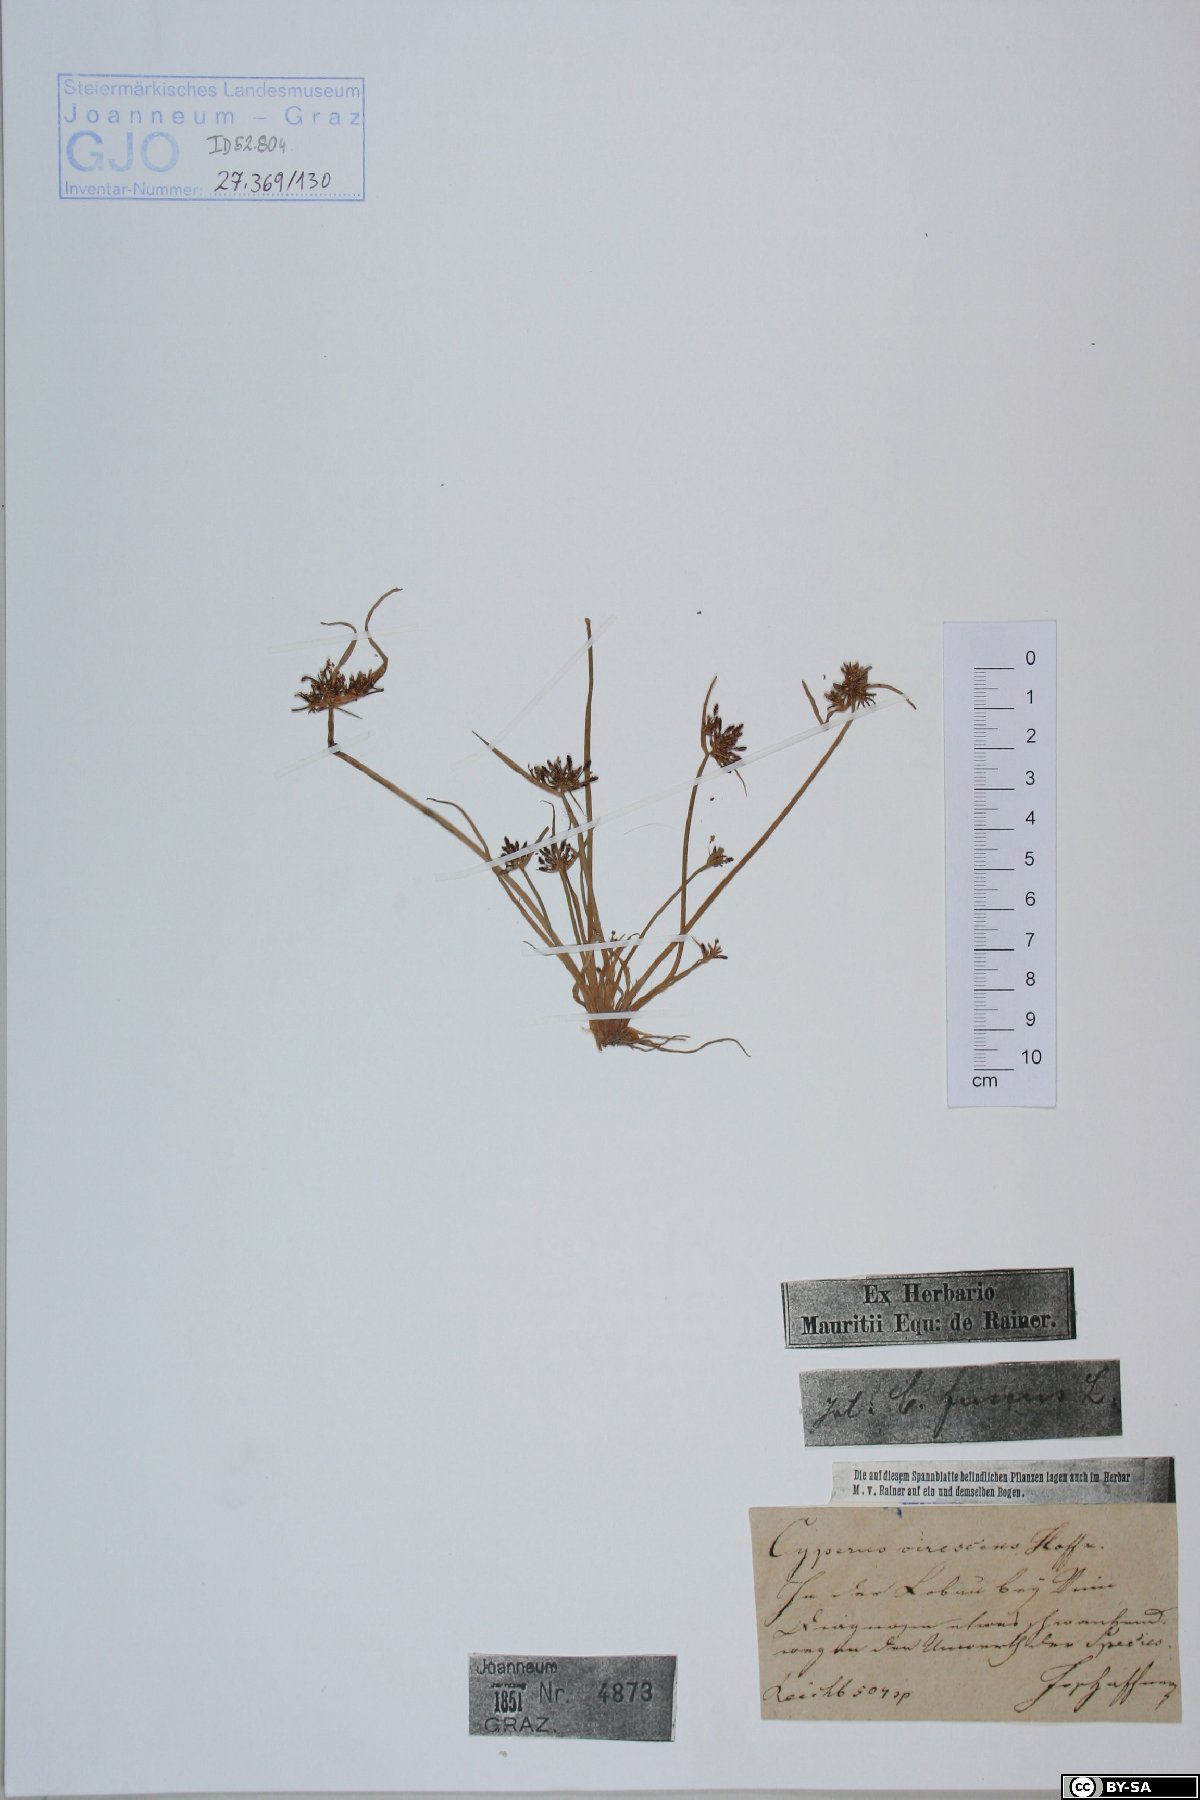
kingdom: Plantae
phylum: Tracheophyta
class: Liliopsida
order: Poales
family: Cyperaceae
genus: Cyperus
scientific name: Cyperus fuscus
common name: Brown galingale
